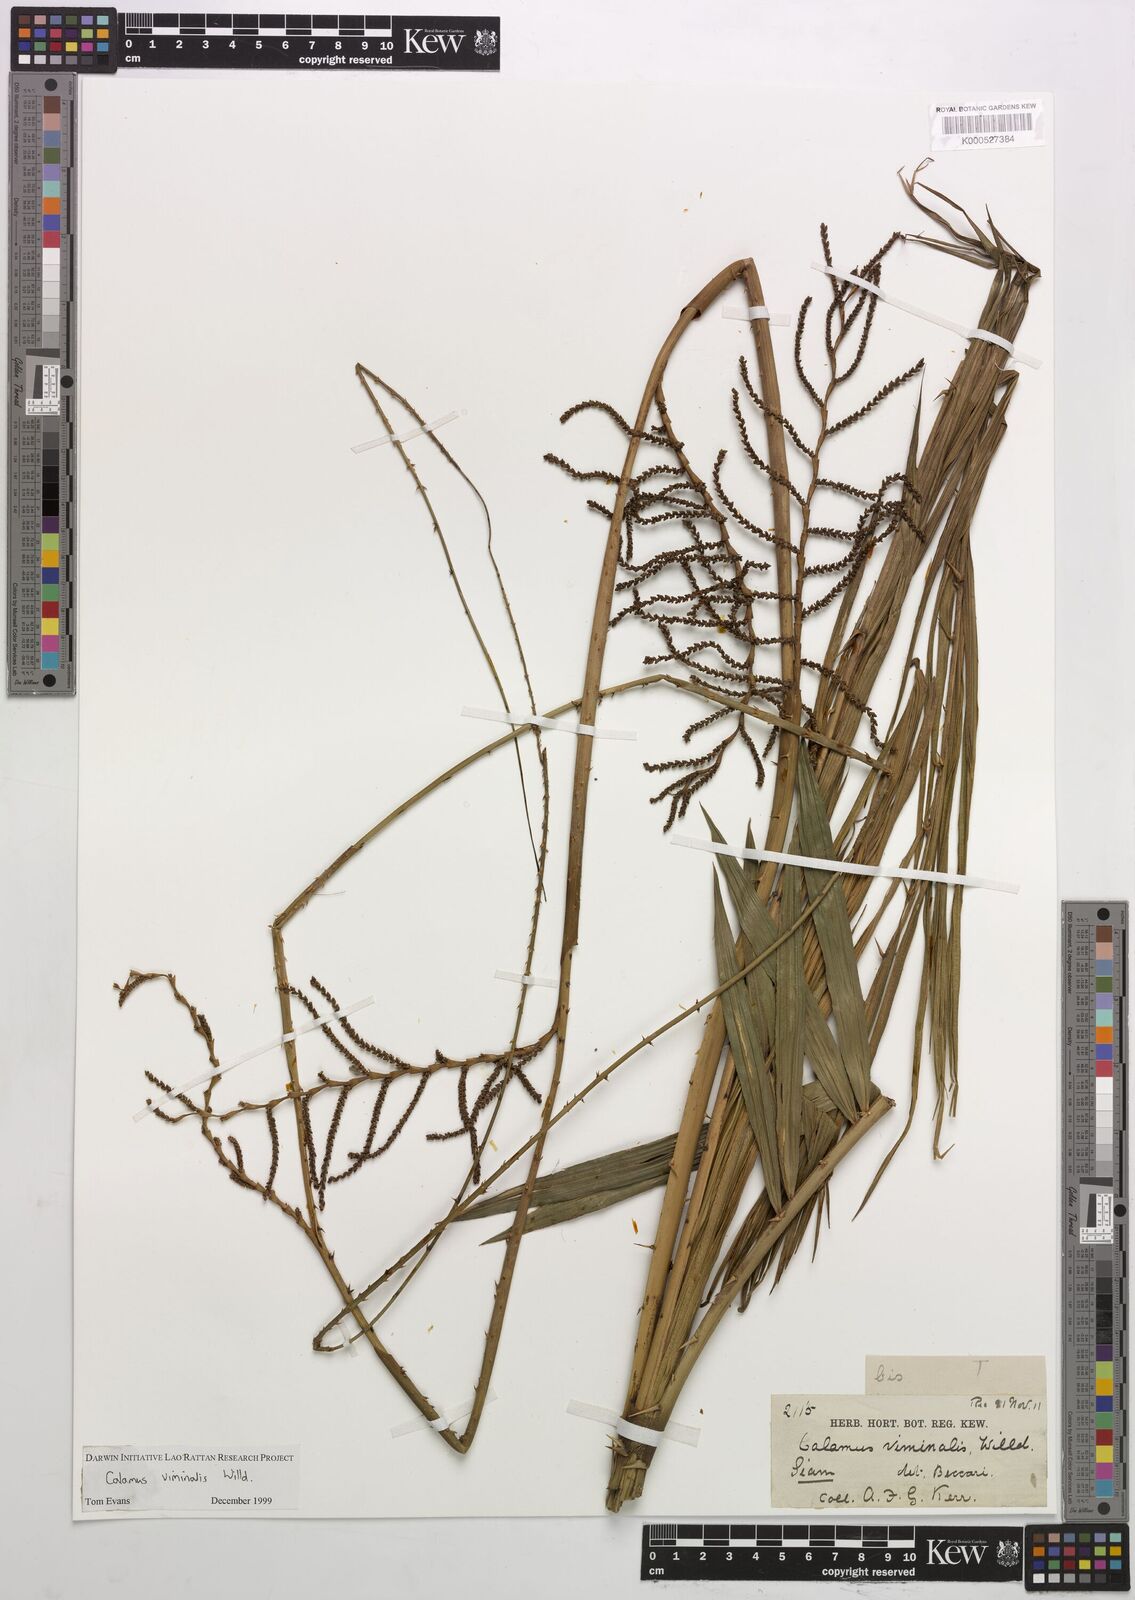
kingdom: Plantae
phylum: Tracheophyta
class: Liliopsida
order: Arecales
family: Arecaceae
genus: Calamus
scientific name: Calamus viminalis
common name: Osier-like rattan palm
